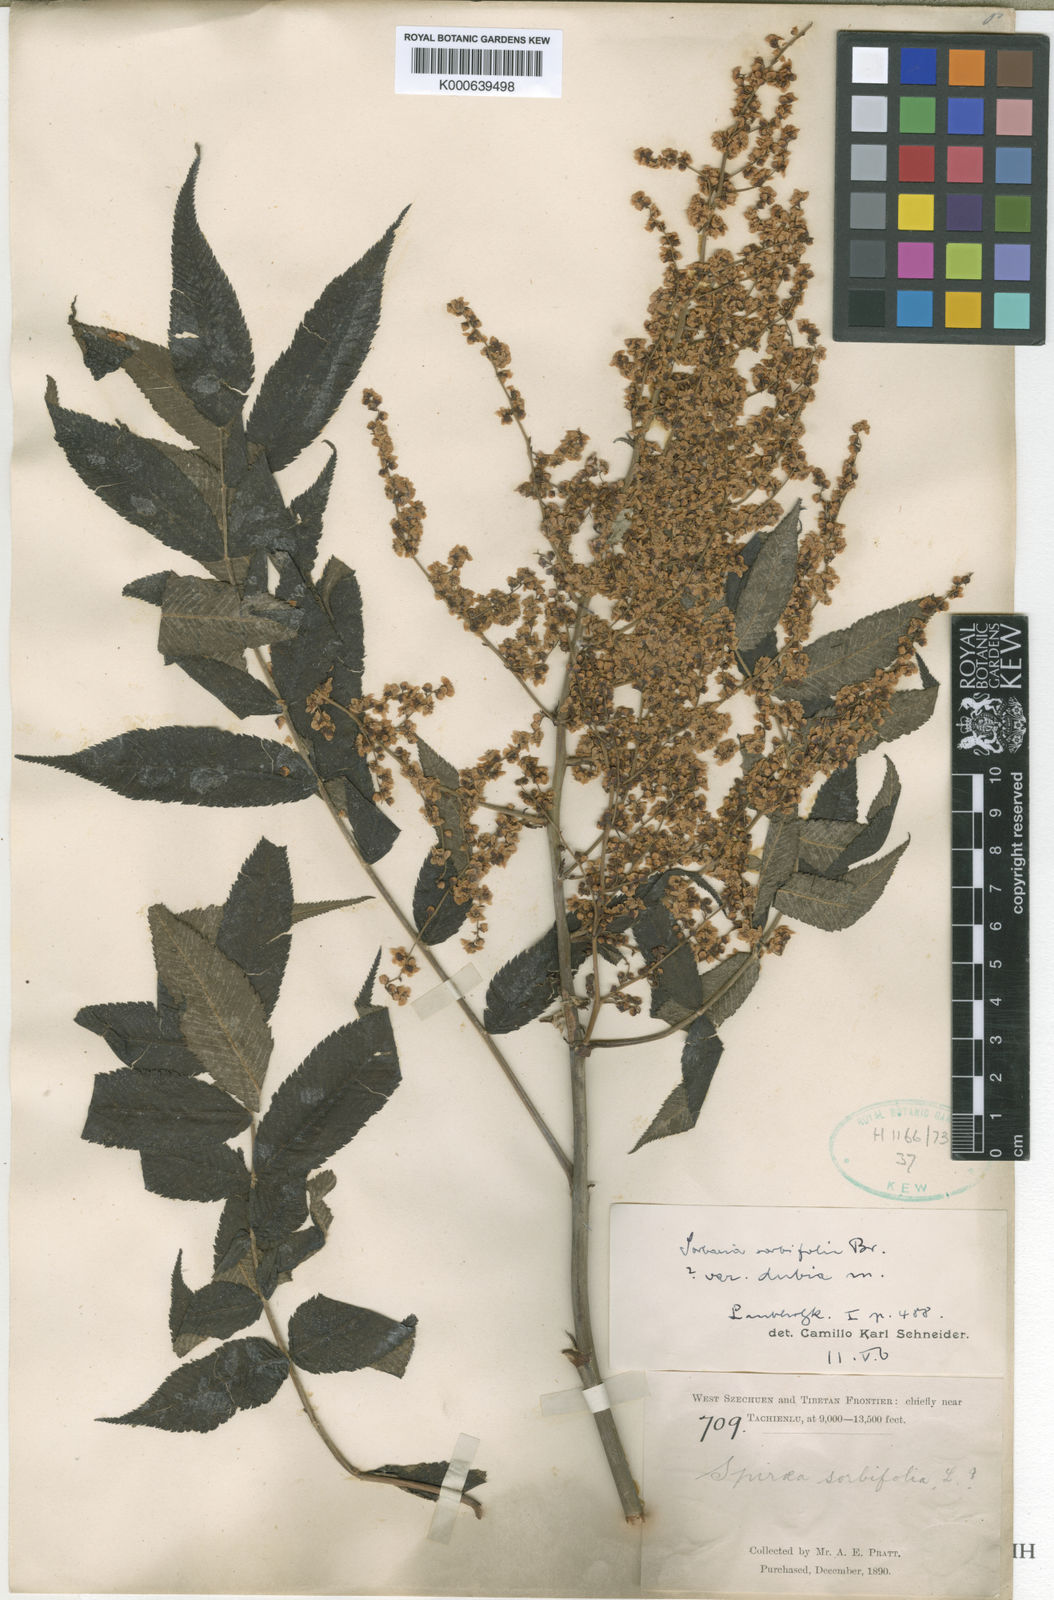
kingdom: Plantae
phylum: Tracheophyta
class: Magnoliopsida
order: Rosales
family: Rosaceae
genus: Sorbaria
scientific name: Sorbaria kirilowii
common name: Chinese sorbaria
